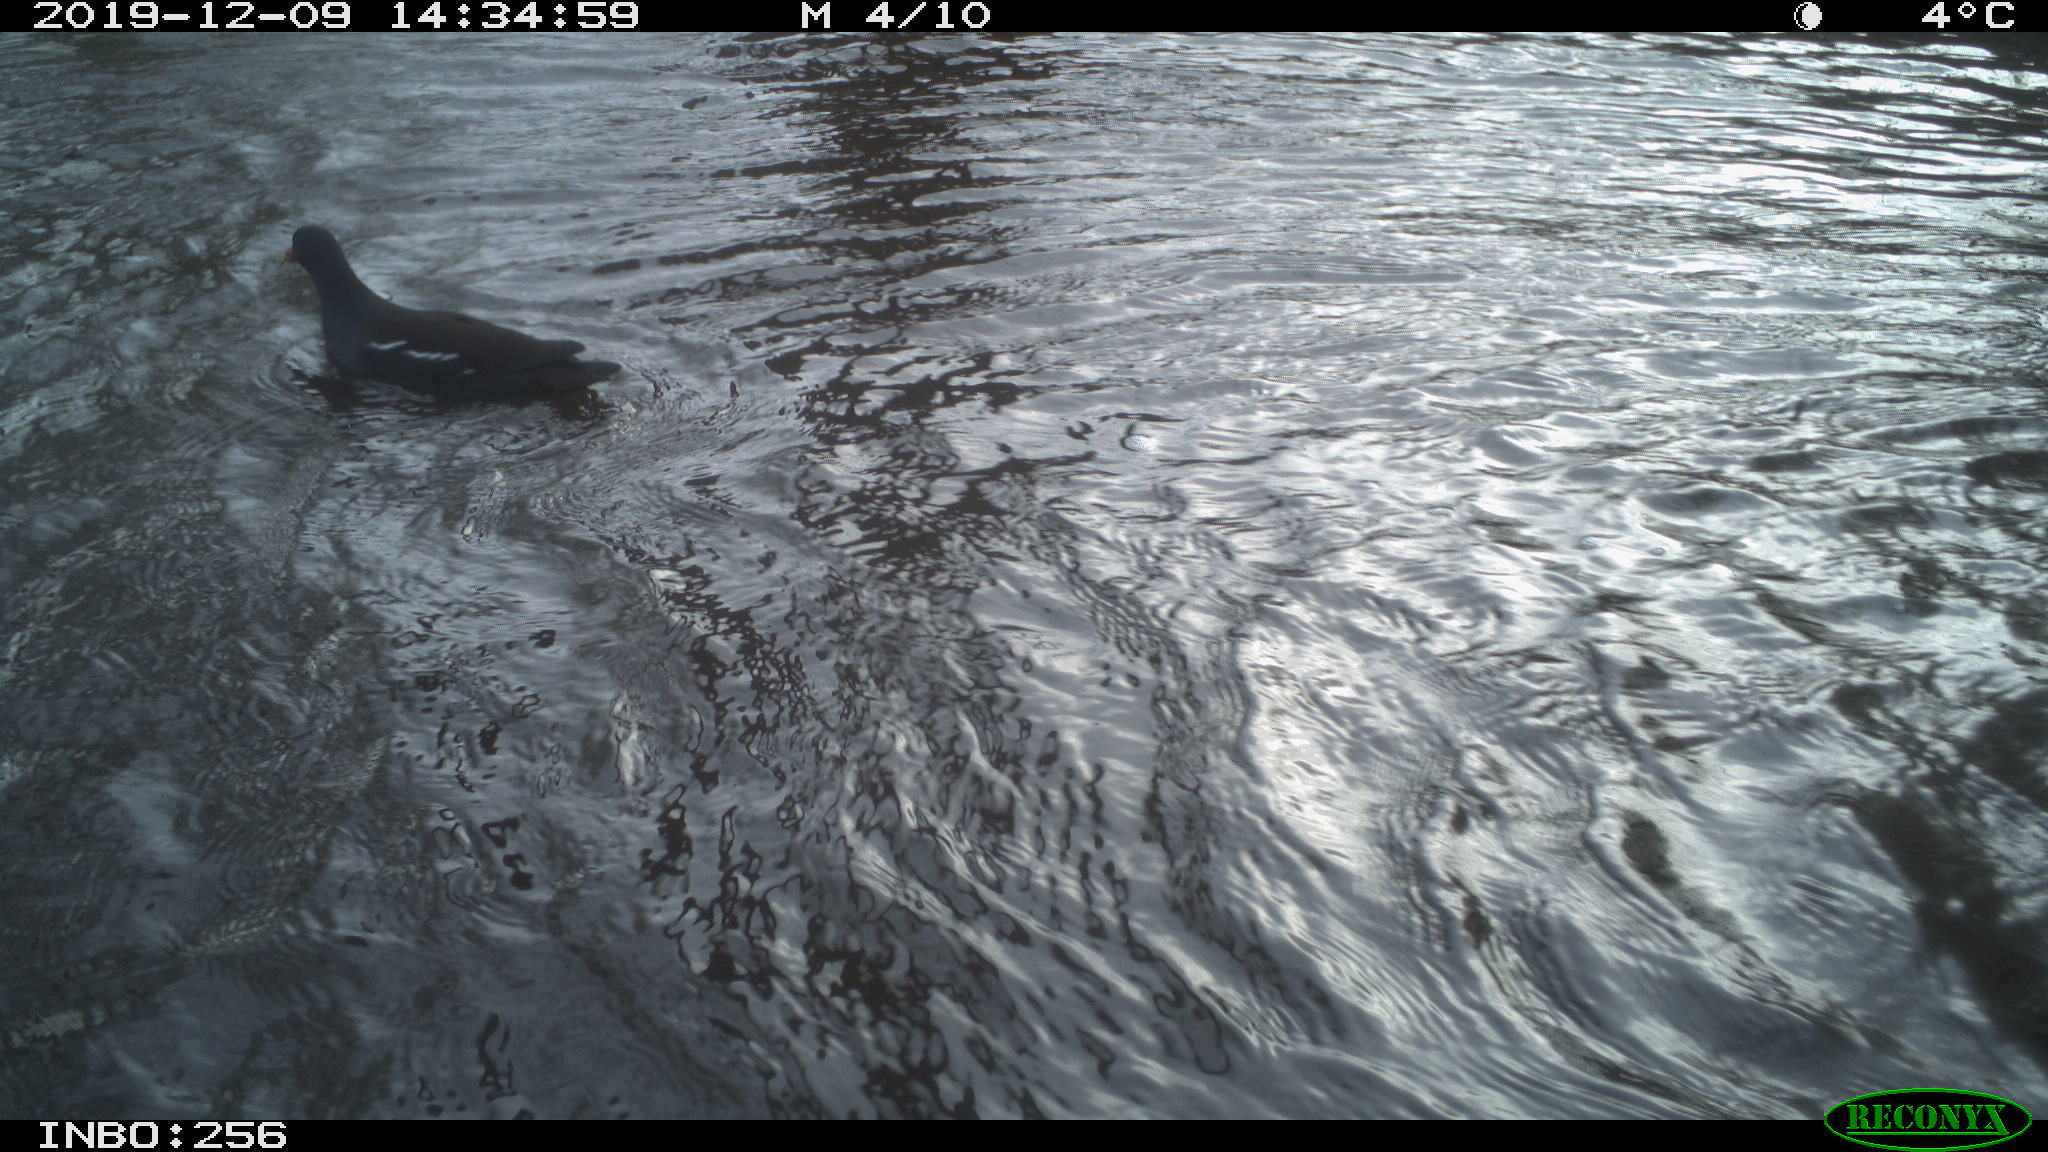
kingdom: Animalia
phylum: Chordata
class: Aves
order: Gruiformes
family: Rallidae
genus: Gallinula
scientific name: Gallinula chloropus
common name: Common moorhen
